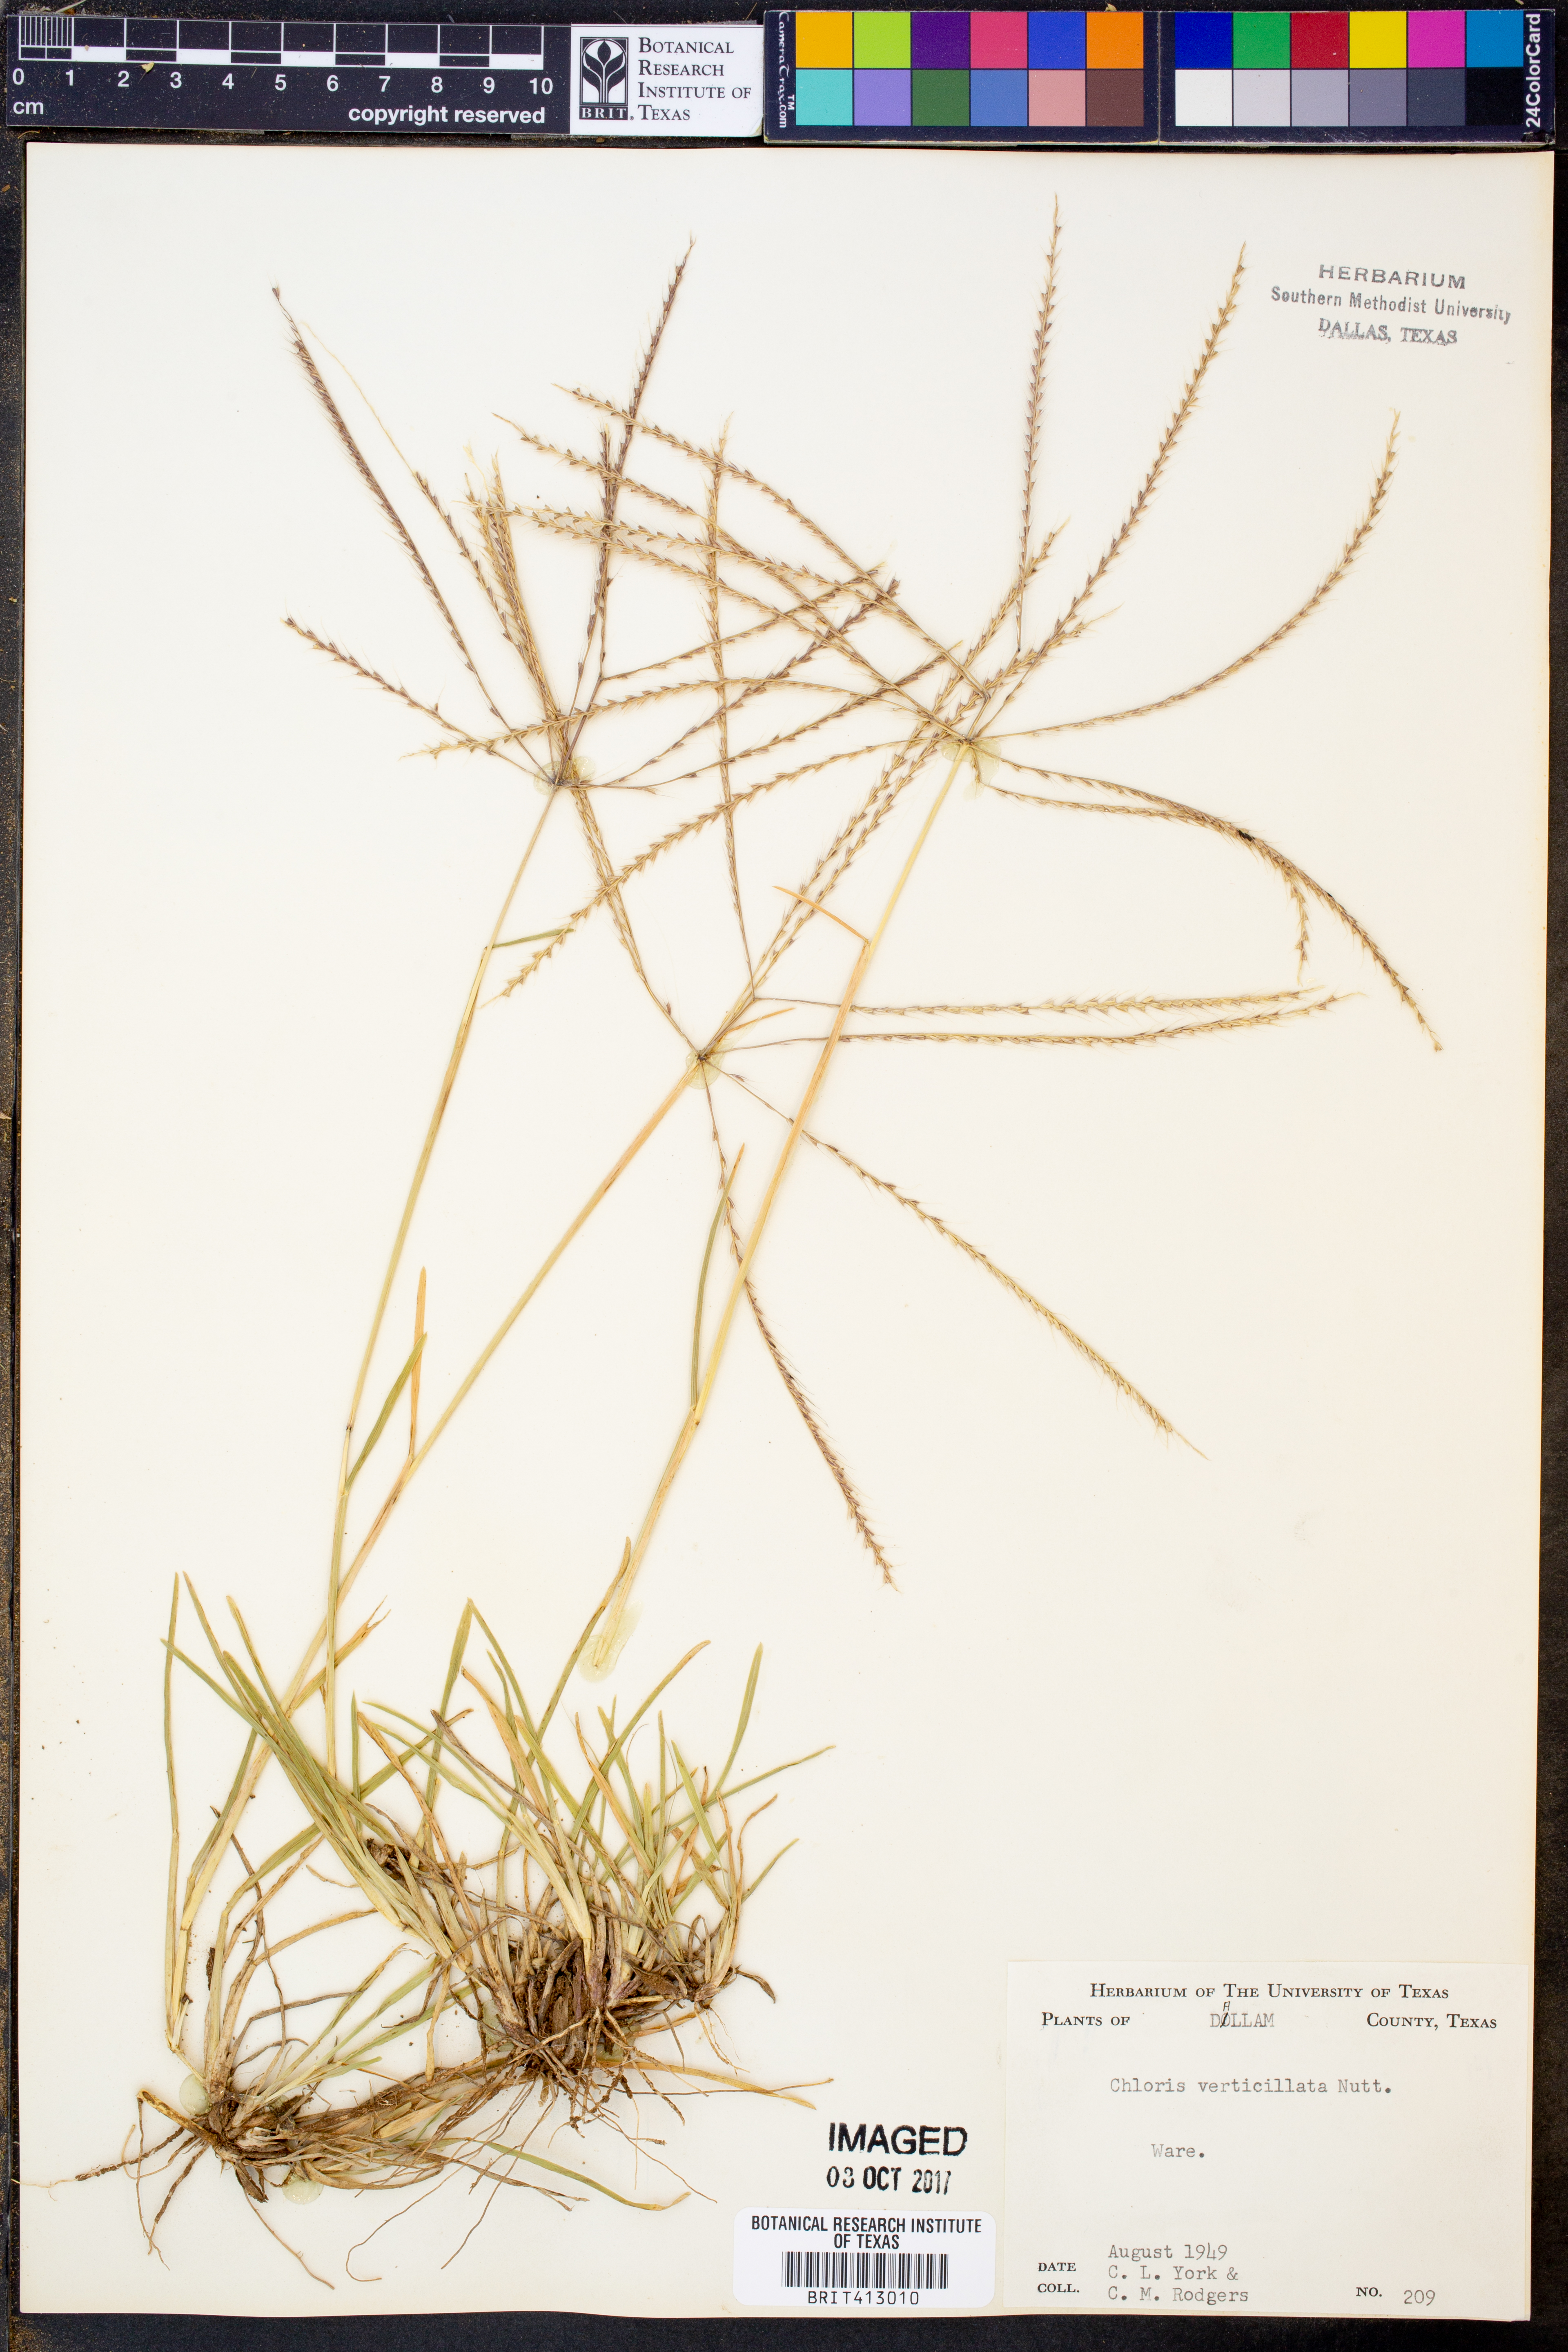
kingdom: Plantae
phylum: Tracheophyta
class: Liliopsida
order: Poales
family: Poaceae
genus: Chloris
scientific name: Chloris verticillata
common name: Tumble windmill grass
